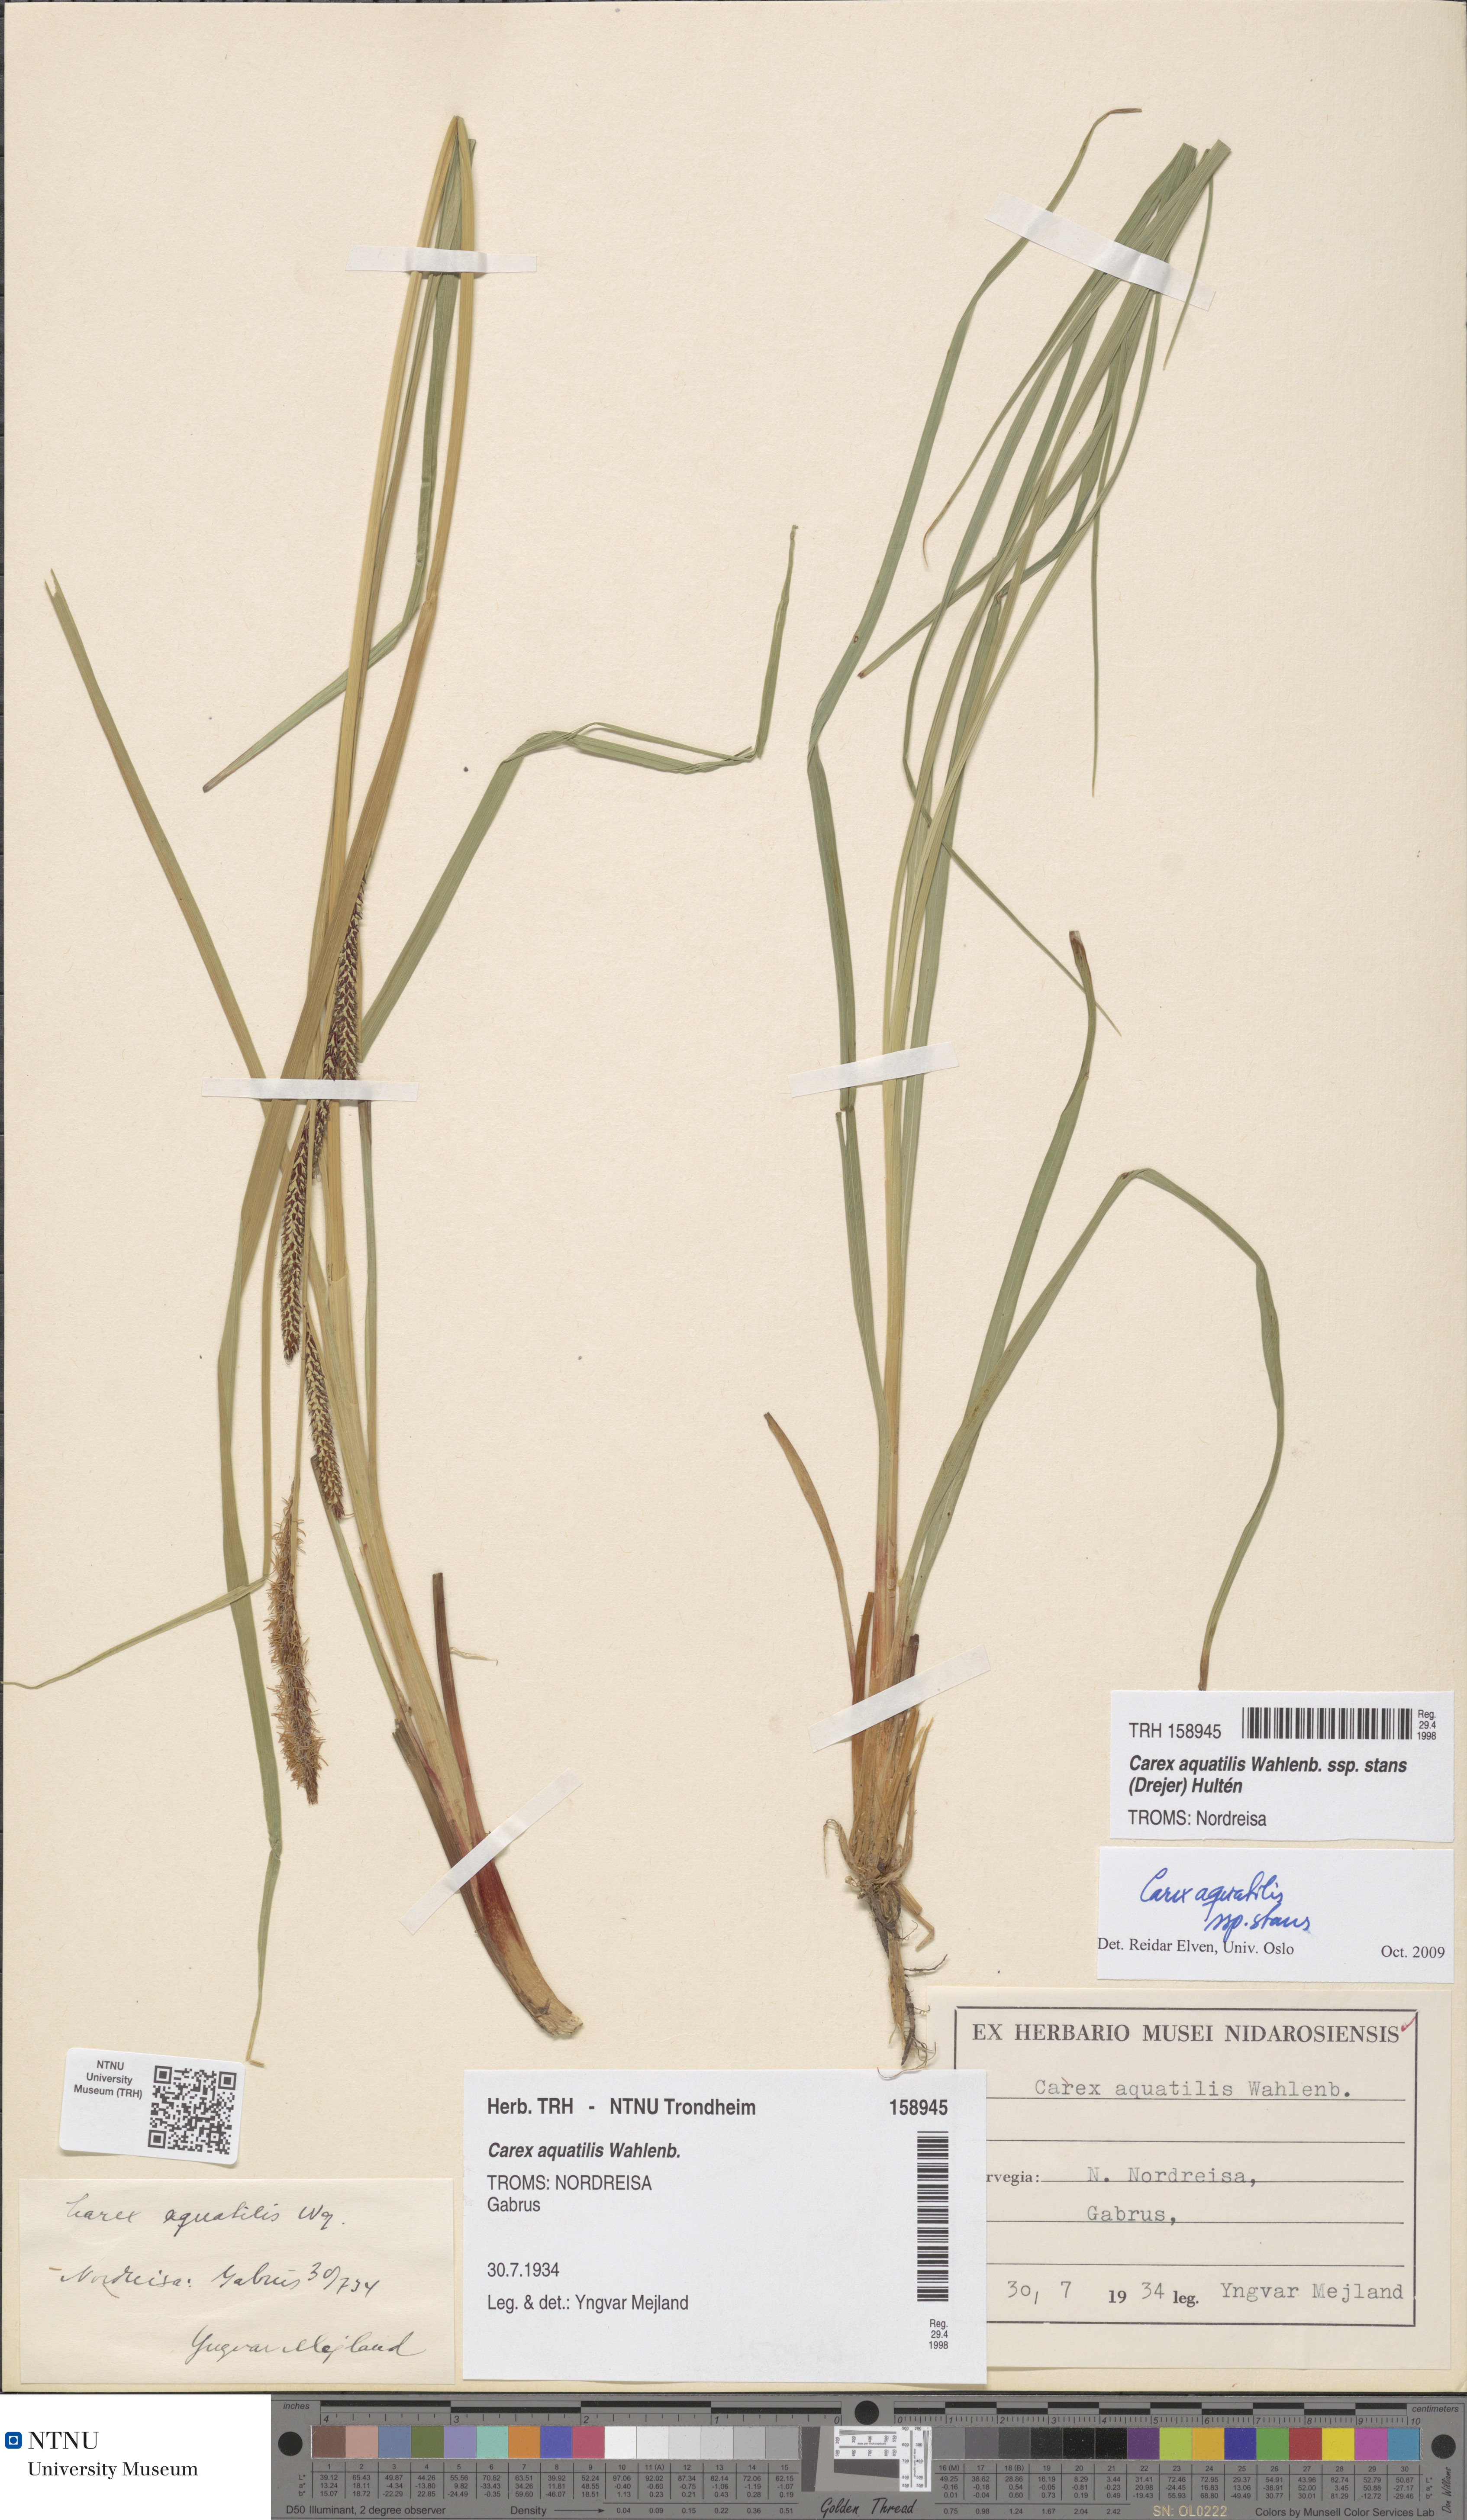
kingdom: Plantae
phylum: Tracheophyta
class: Liliopsida
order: Poales
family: Cyperaceae
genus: Carex
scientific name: Carex aquatilis
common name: Water sedge
